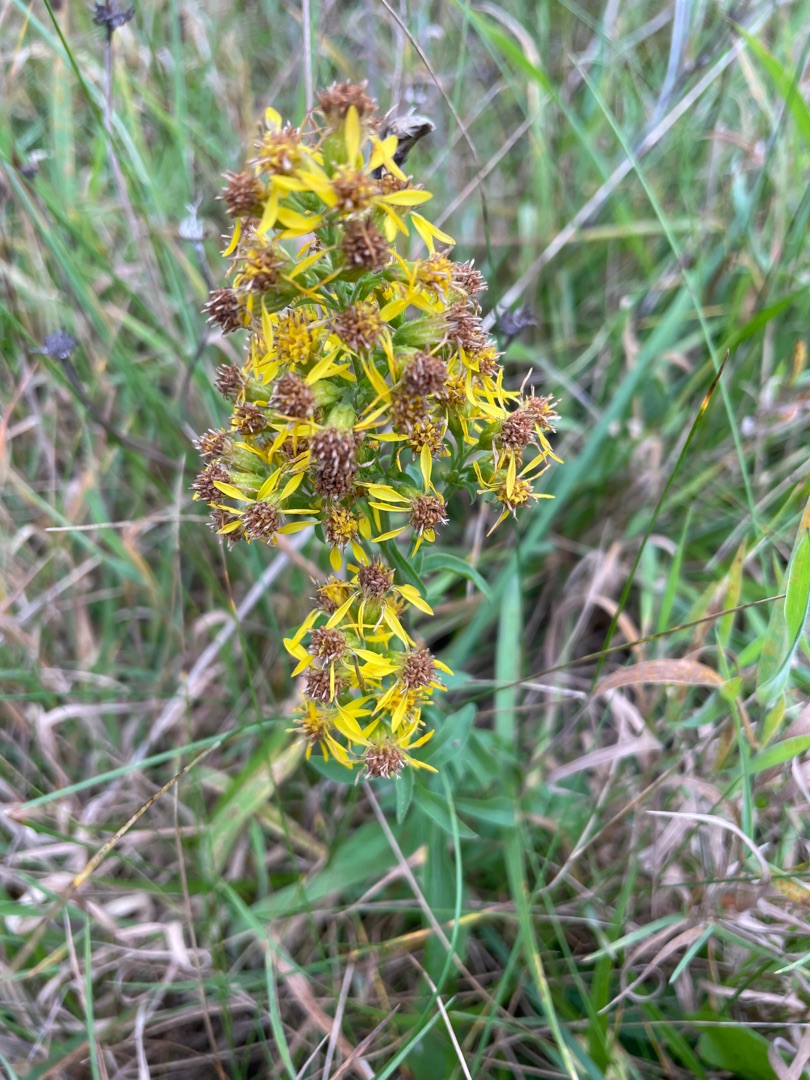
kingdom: Plantae
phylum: Tracheophyta
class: Magnoliopsida
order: Asterales
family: Asteraceae
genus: Solidago
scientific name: Solidago virgaurea
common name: Almindelig gyldenris
